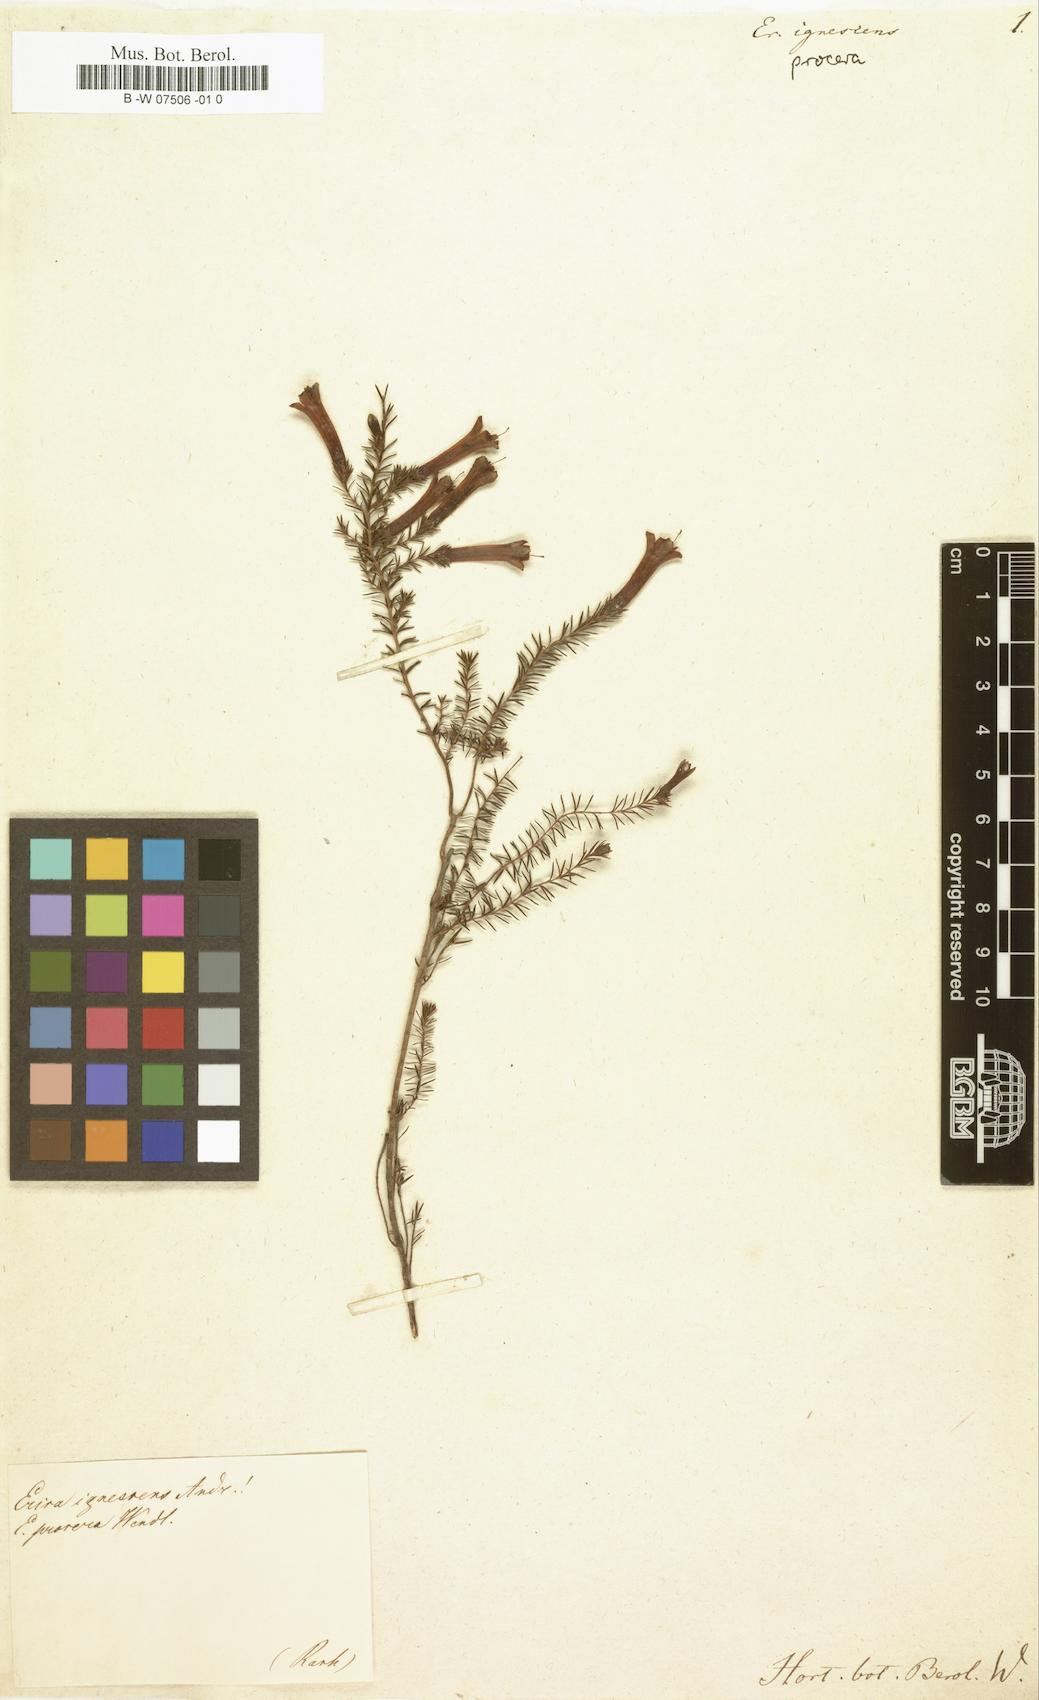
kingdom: Plantae
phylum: Tracheophyta
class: Magnoliopsida
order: Ericales
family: Ericaceae
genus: Erica
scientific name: Erica
